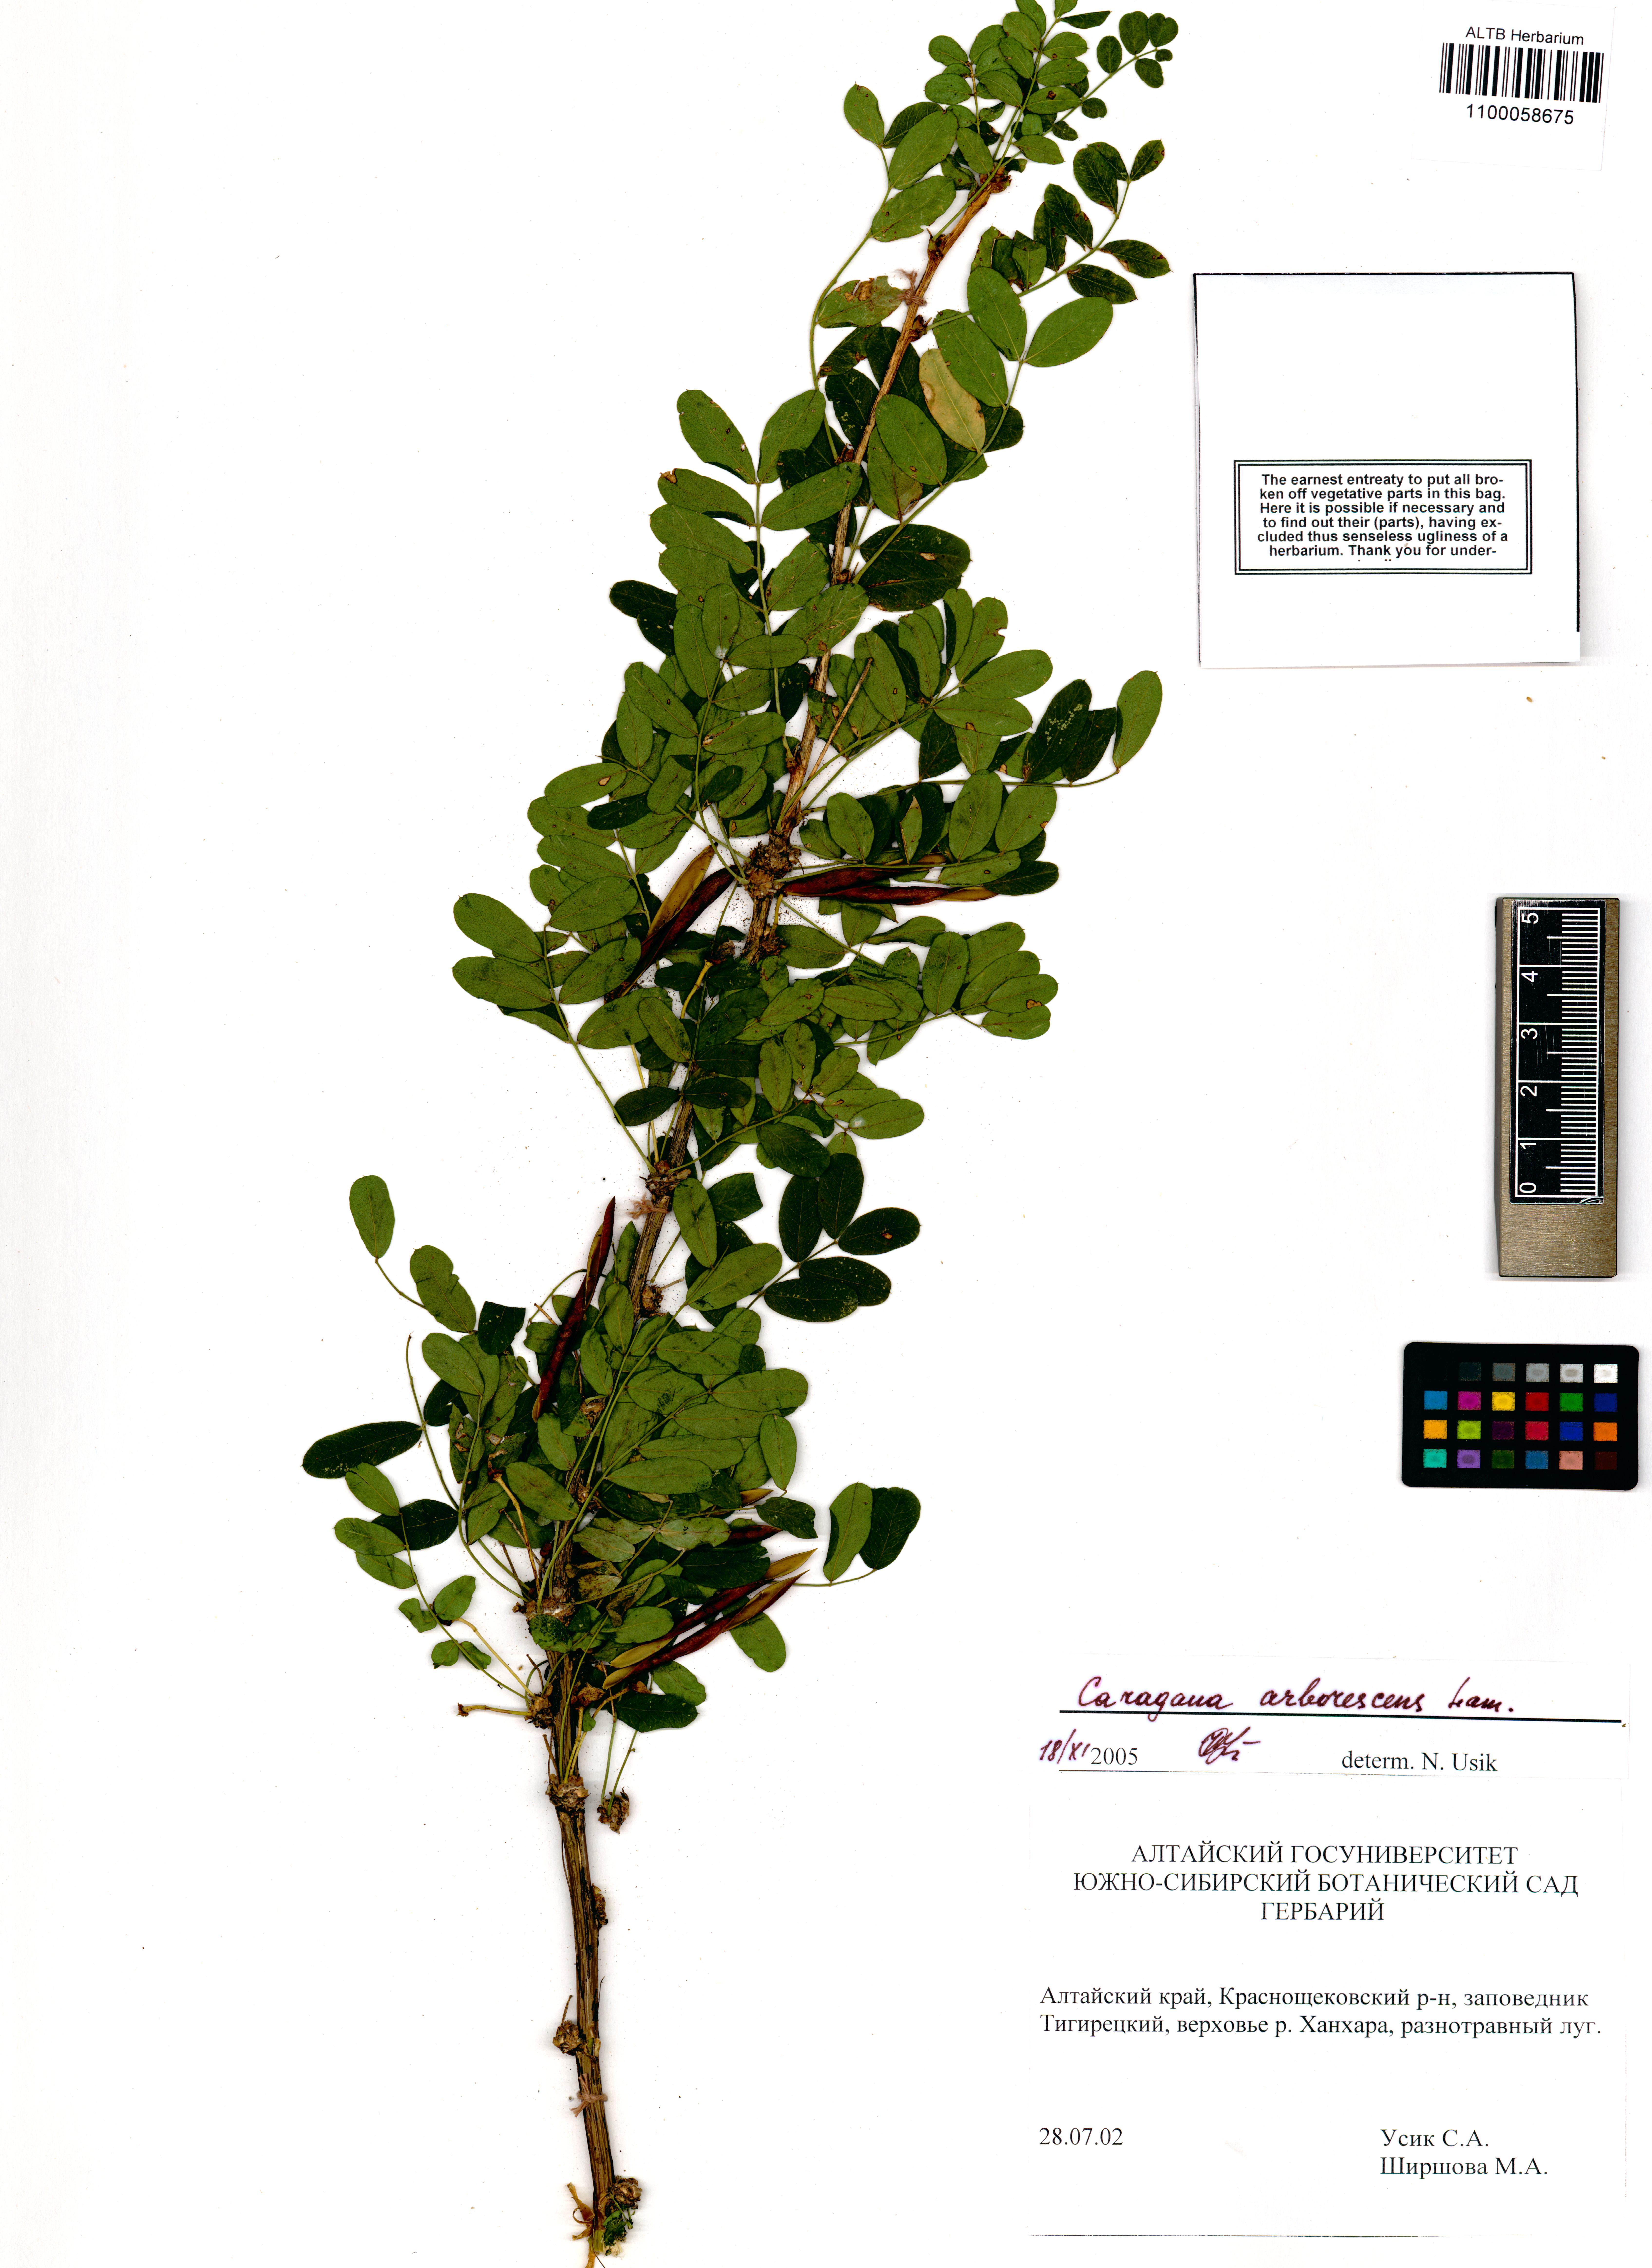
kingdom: Plantae
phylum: Tracheophyta
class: Magnoliopsida
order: Fabales
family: Fabaceae
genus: Caragana
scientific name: Caragana arborescens
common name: Siberian peashrub
